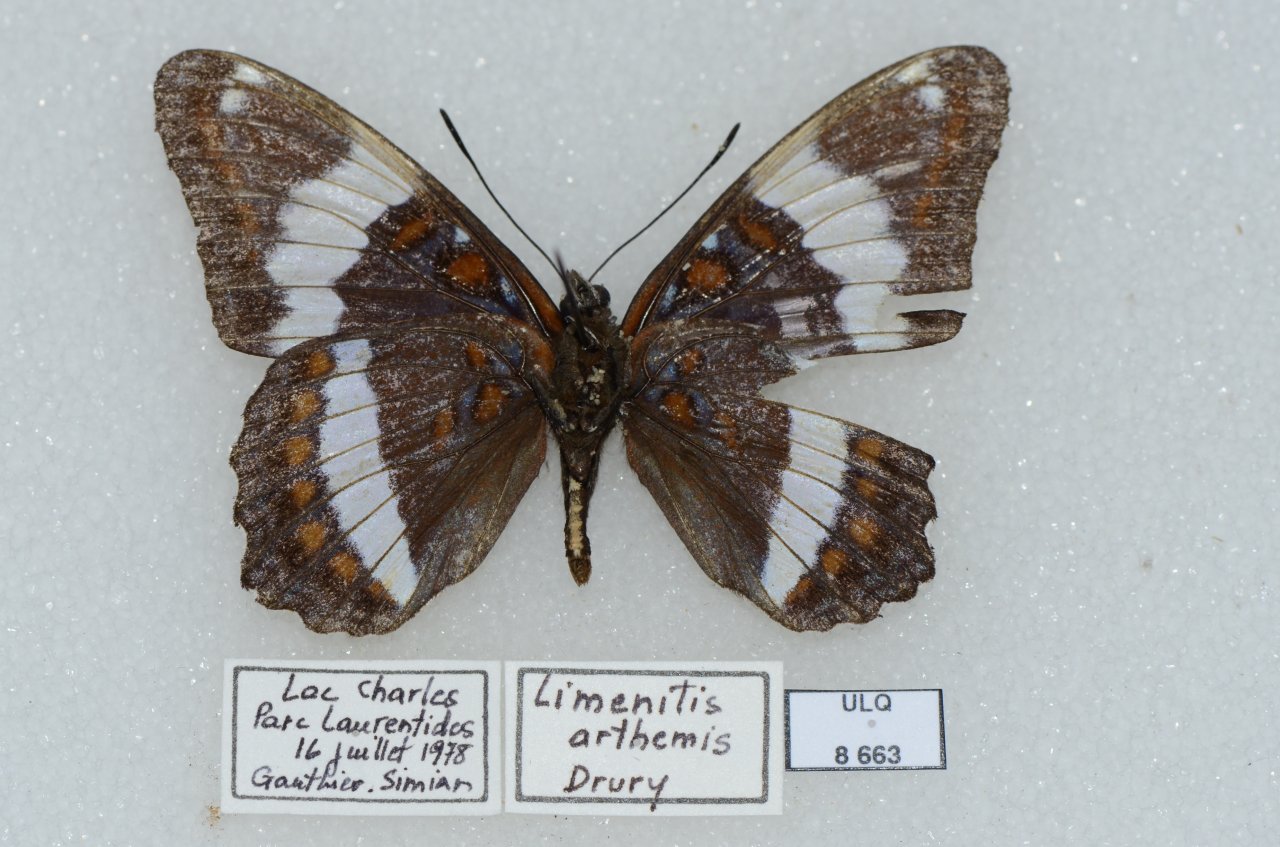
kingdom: Animalia
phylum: Arthropoda
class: Insecta
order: Lepidoptera
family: Nymphalidae
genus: Limenitis
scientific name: Limenitis arthemis
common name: Red-spotted Admiral
